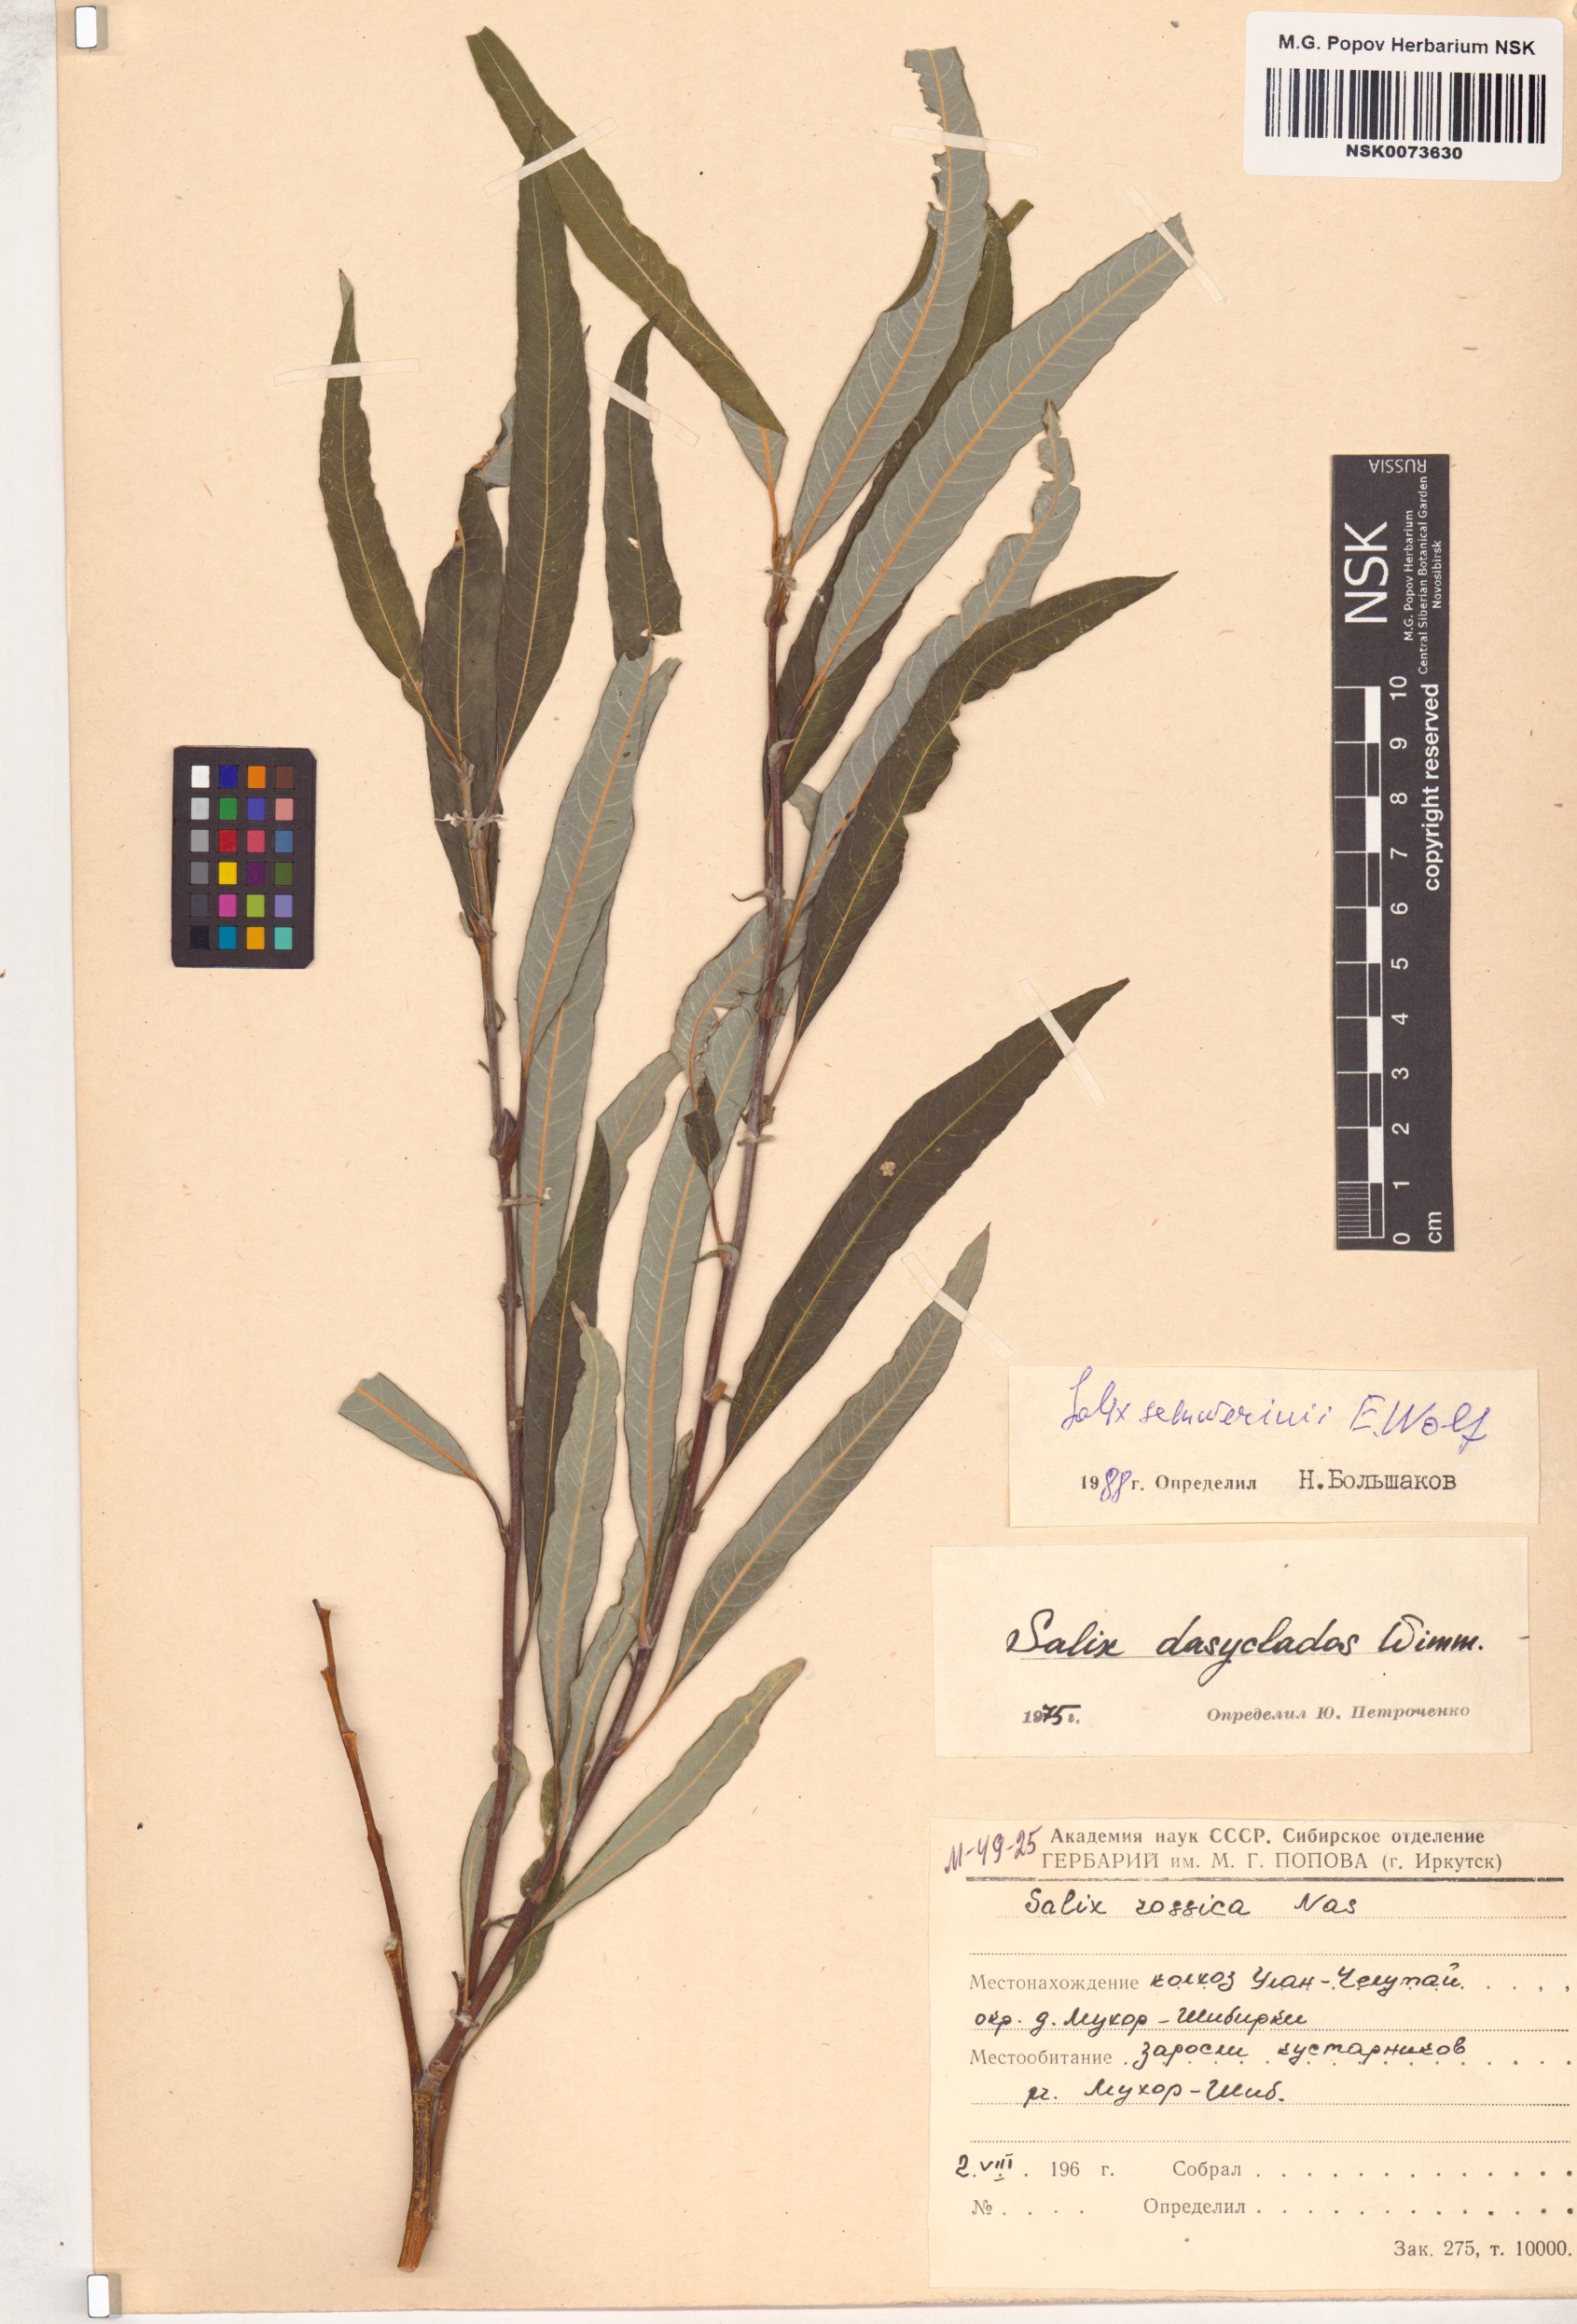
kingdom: Plantae
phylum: Tracheophyta
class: Magnoliopsida
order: Malpighiales
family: Salicaceae
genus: Salix
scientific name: Salix schwerinii
